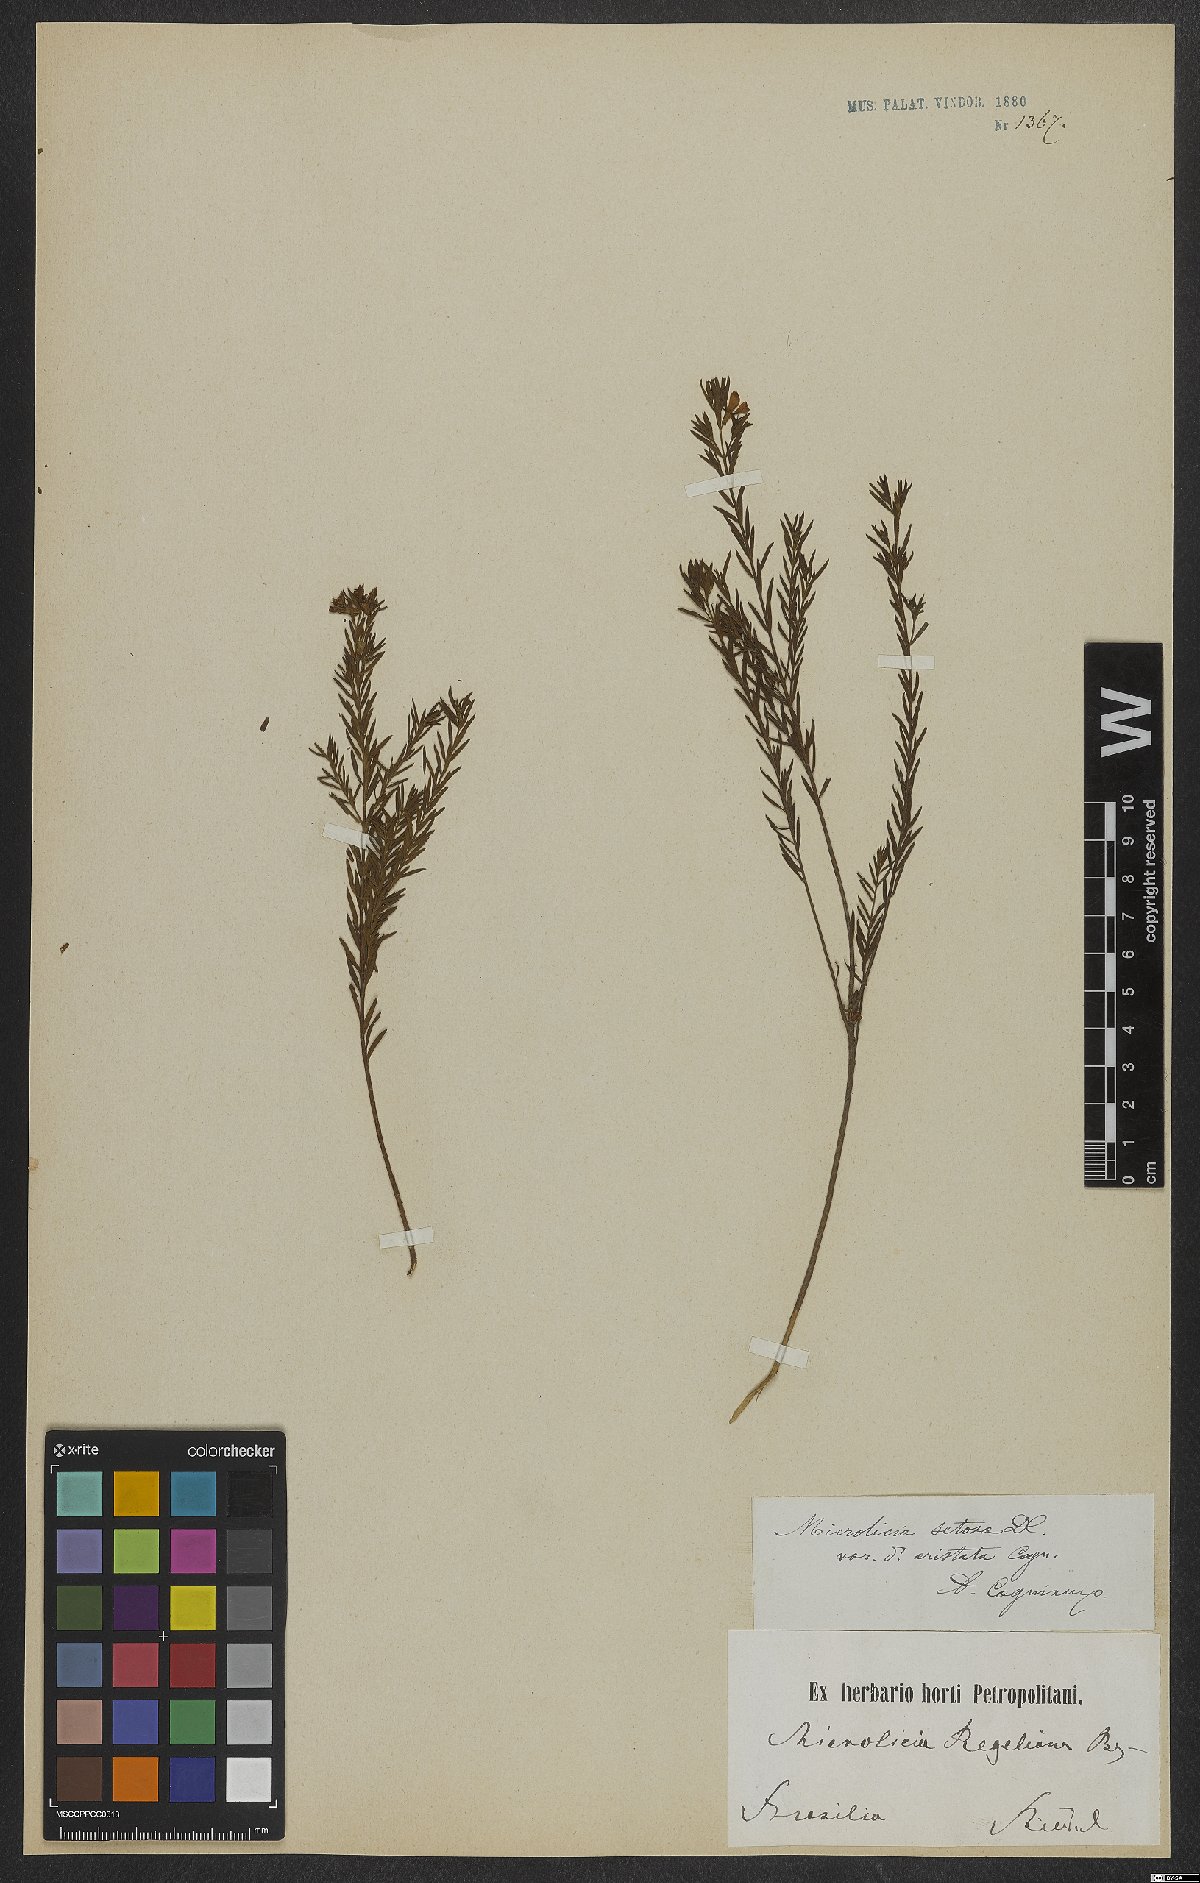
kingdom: Plantae
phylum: Tracheophyta
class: Magnoliopsida
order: Myrtales
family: Melastomataceae
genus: Microlicia
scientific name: Microlicia setosa
